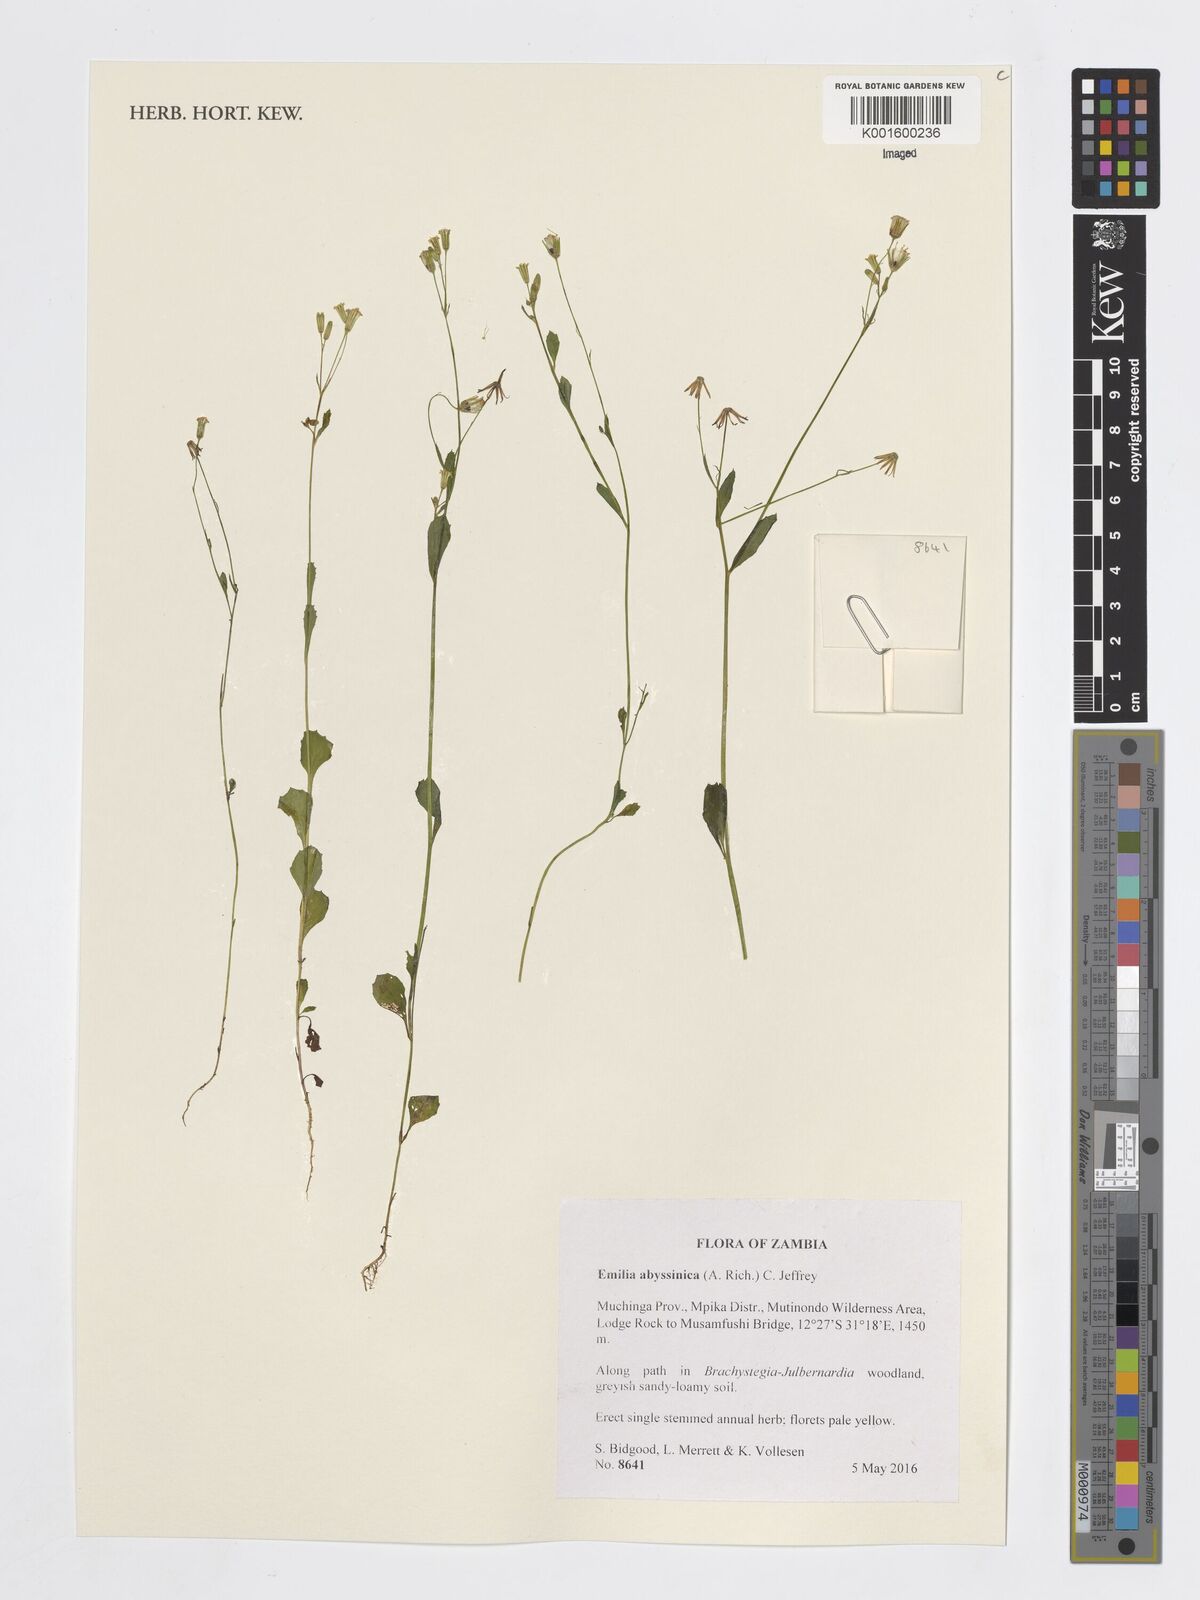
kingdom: Plantae
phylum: Tracheophyta
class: Magnoliopsida
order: Asterales
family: Asteraceae
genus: Emilia
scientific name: Emilia abyssinica
